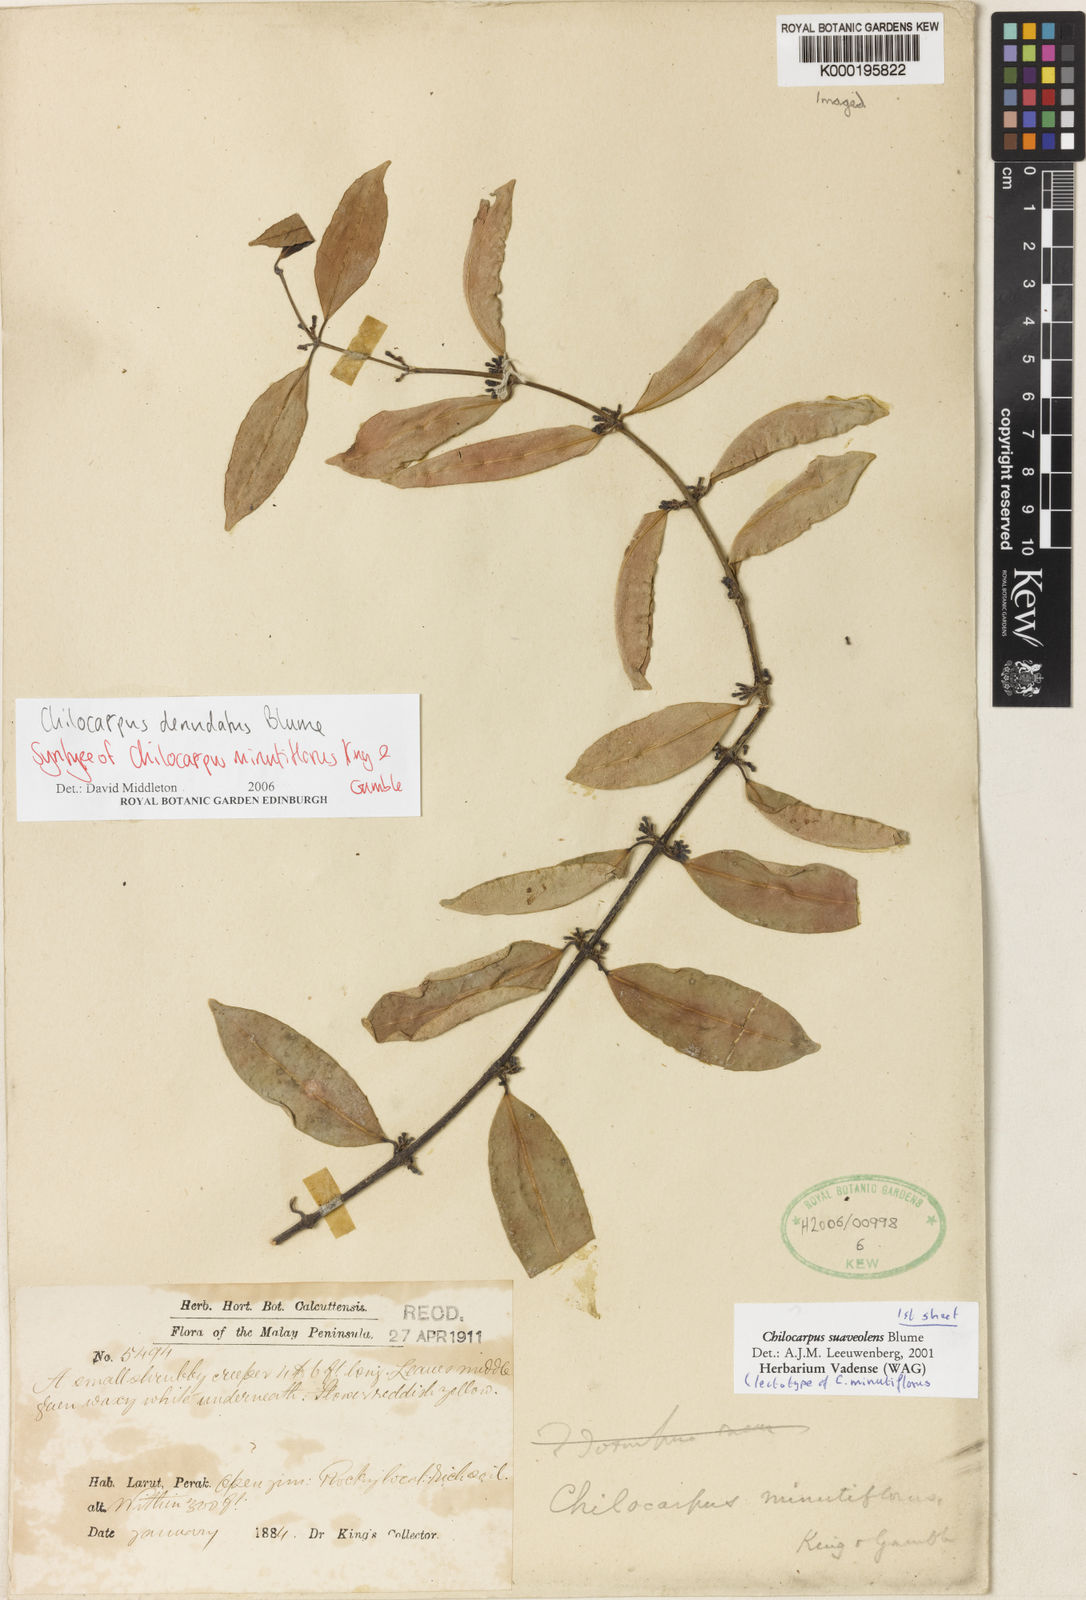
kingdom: Plantae
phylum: Tracheophyta
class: Magnoliopsida
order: Gentianales
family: Apocynaceae
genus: Chilocarpus
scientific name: Chilocarpus denudatus
